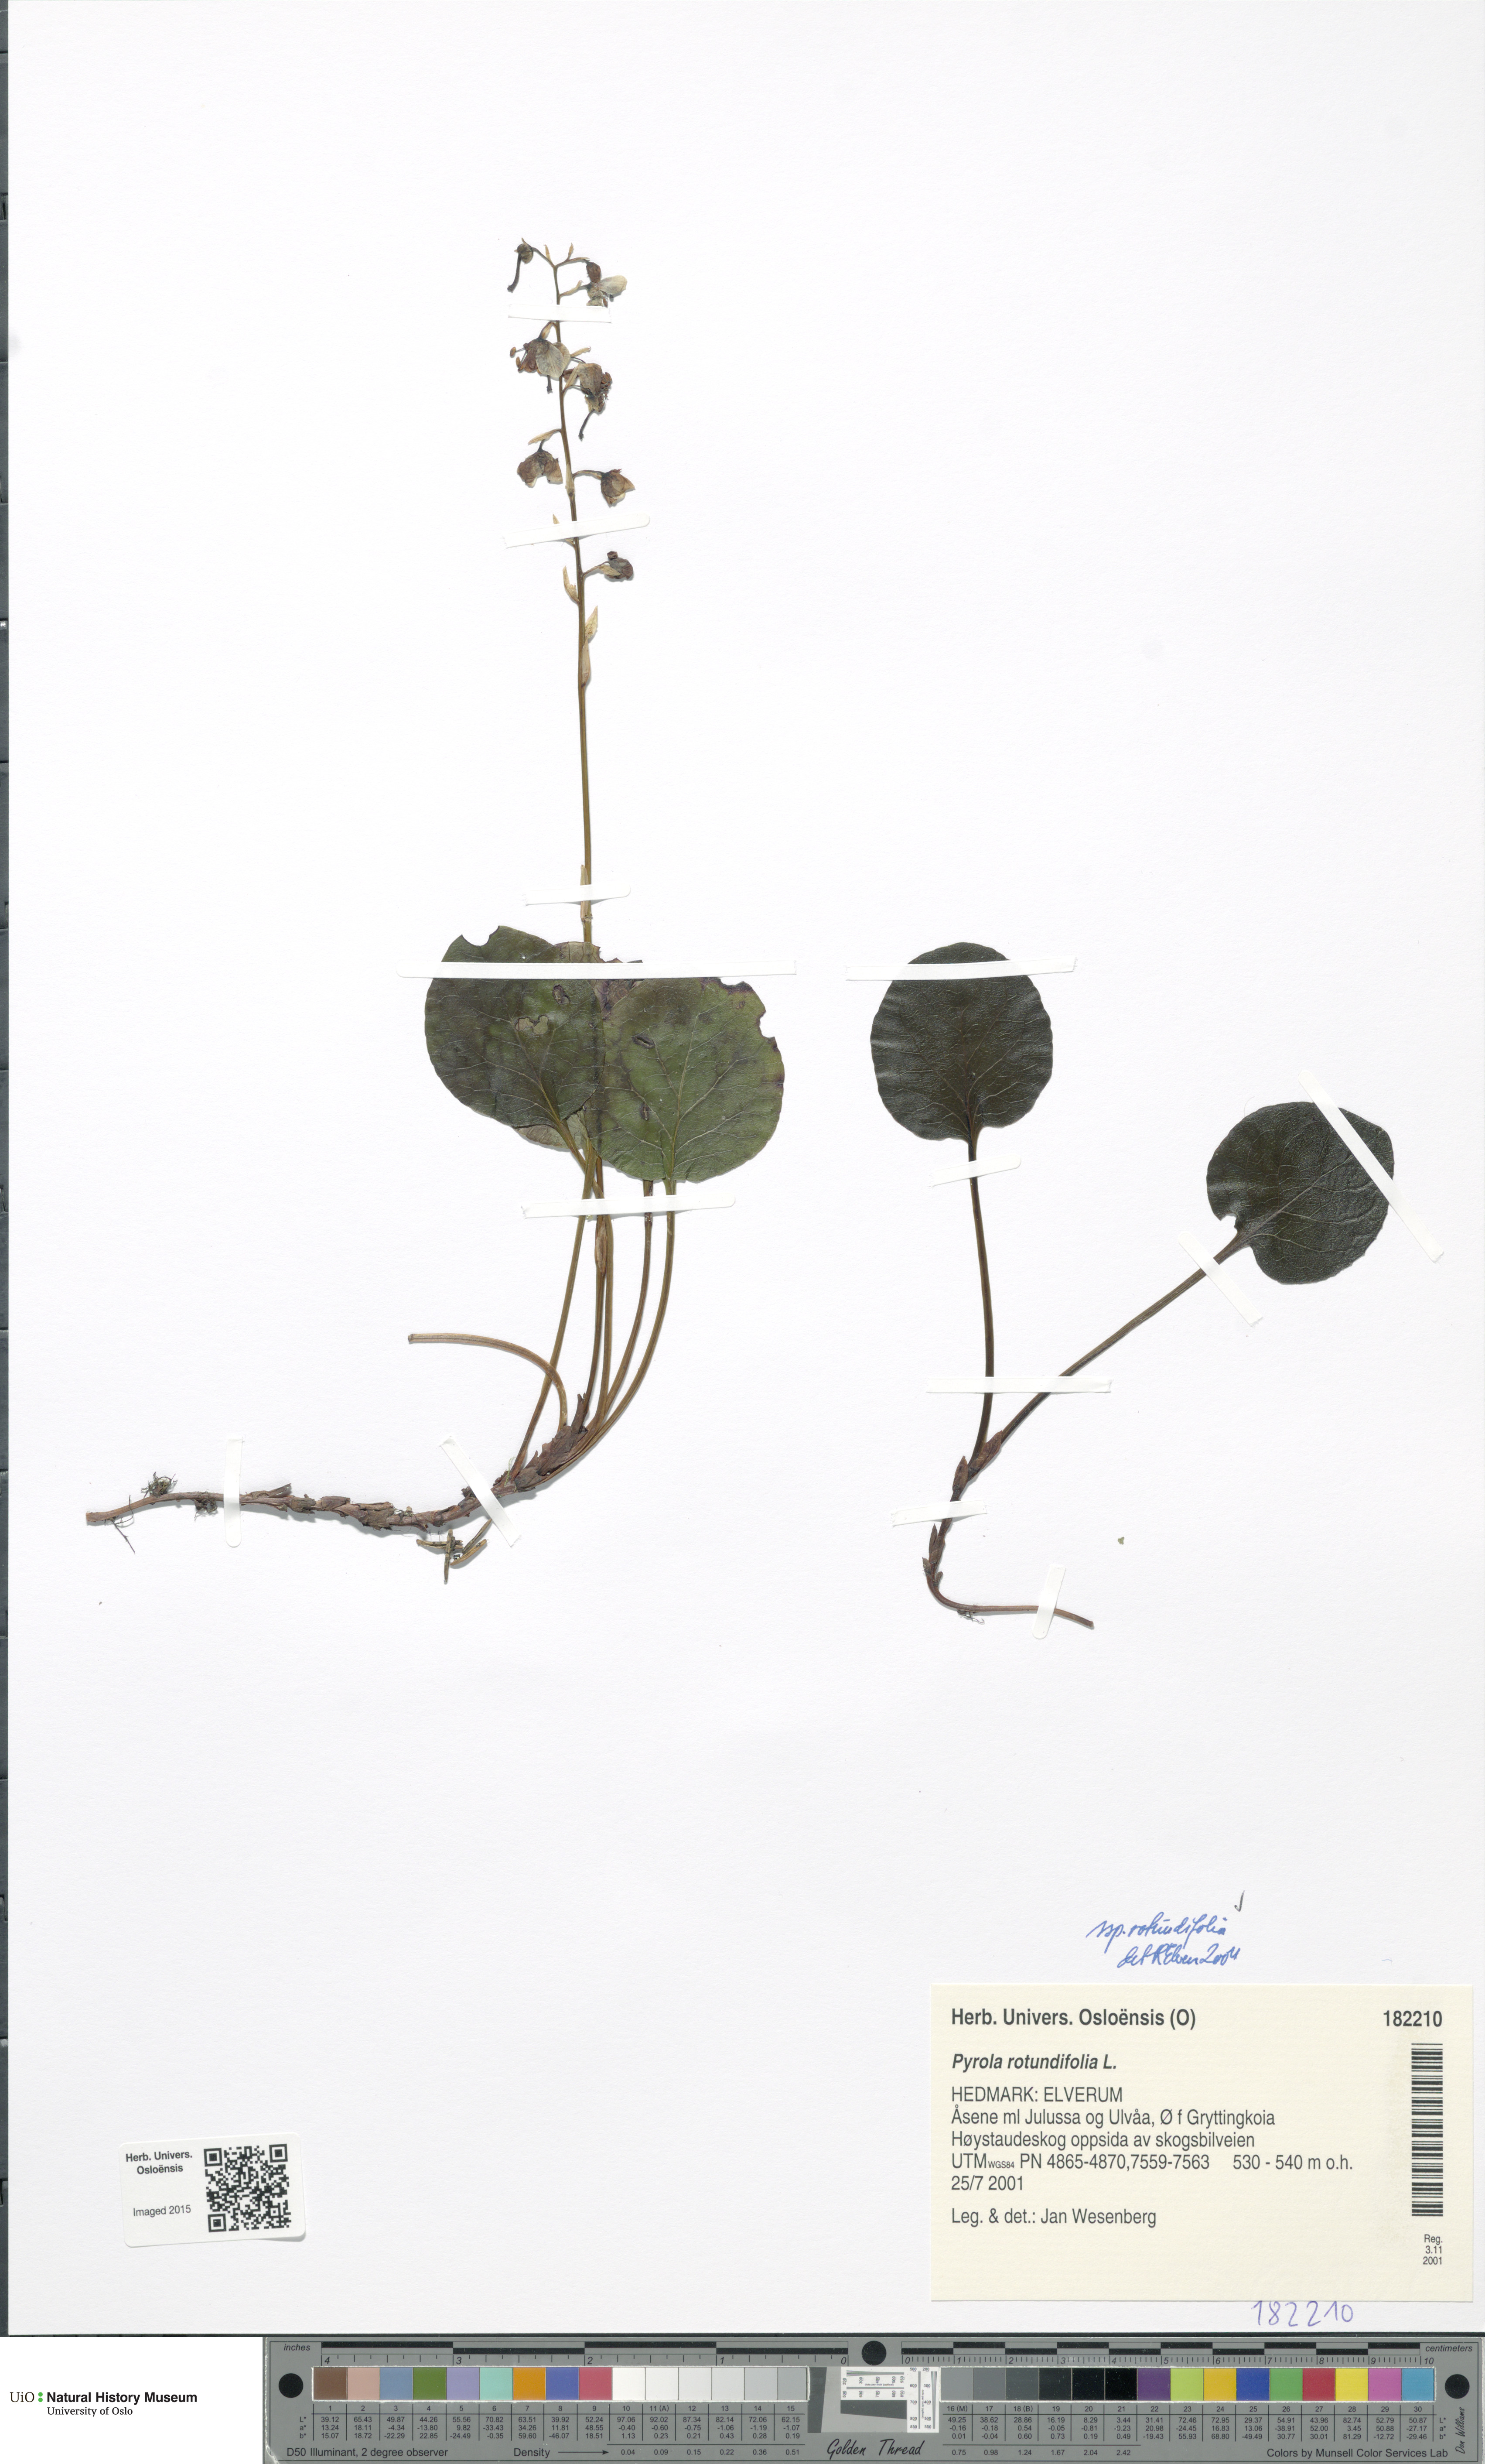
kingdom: Plantae
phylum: Tracheophyta
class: Magnoliopsida
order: Ericales
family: Ericaceae
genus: Pyrola
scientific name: Pyrola rotundifolia
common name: Round-leaved wintergreen
